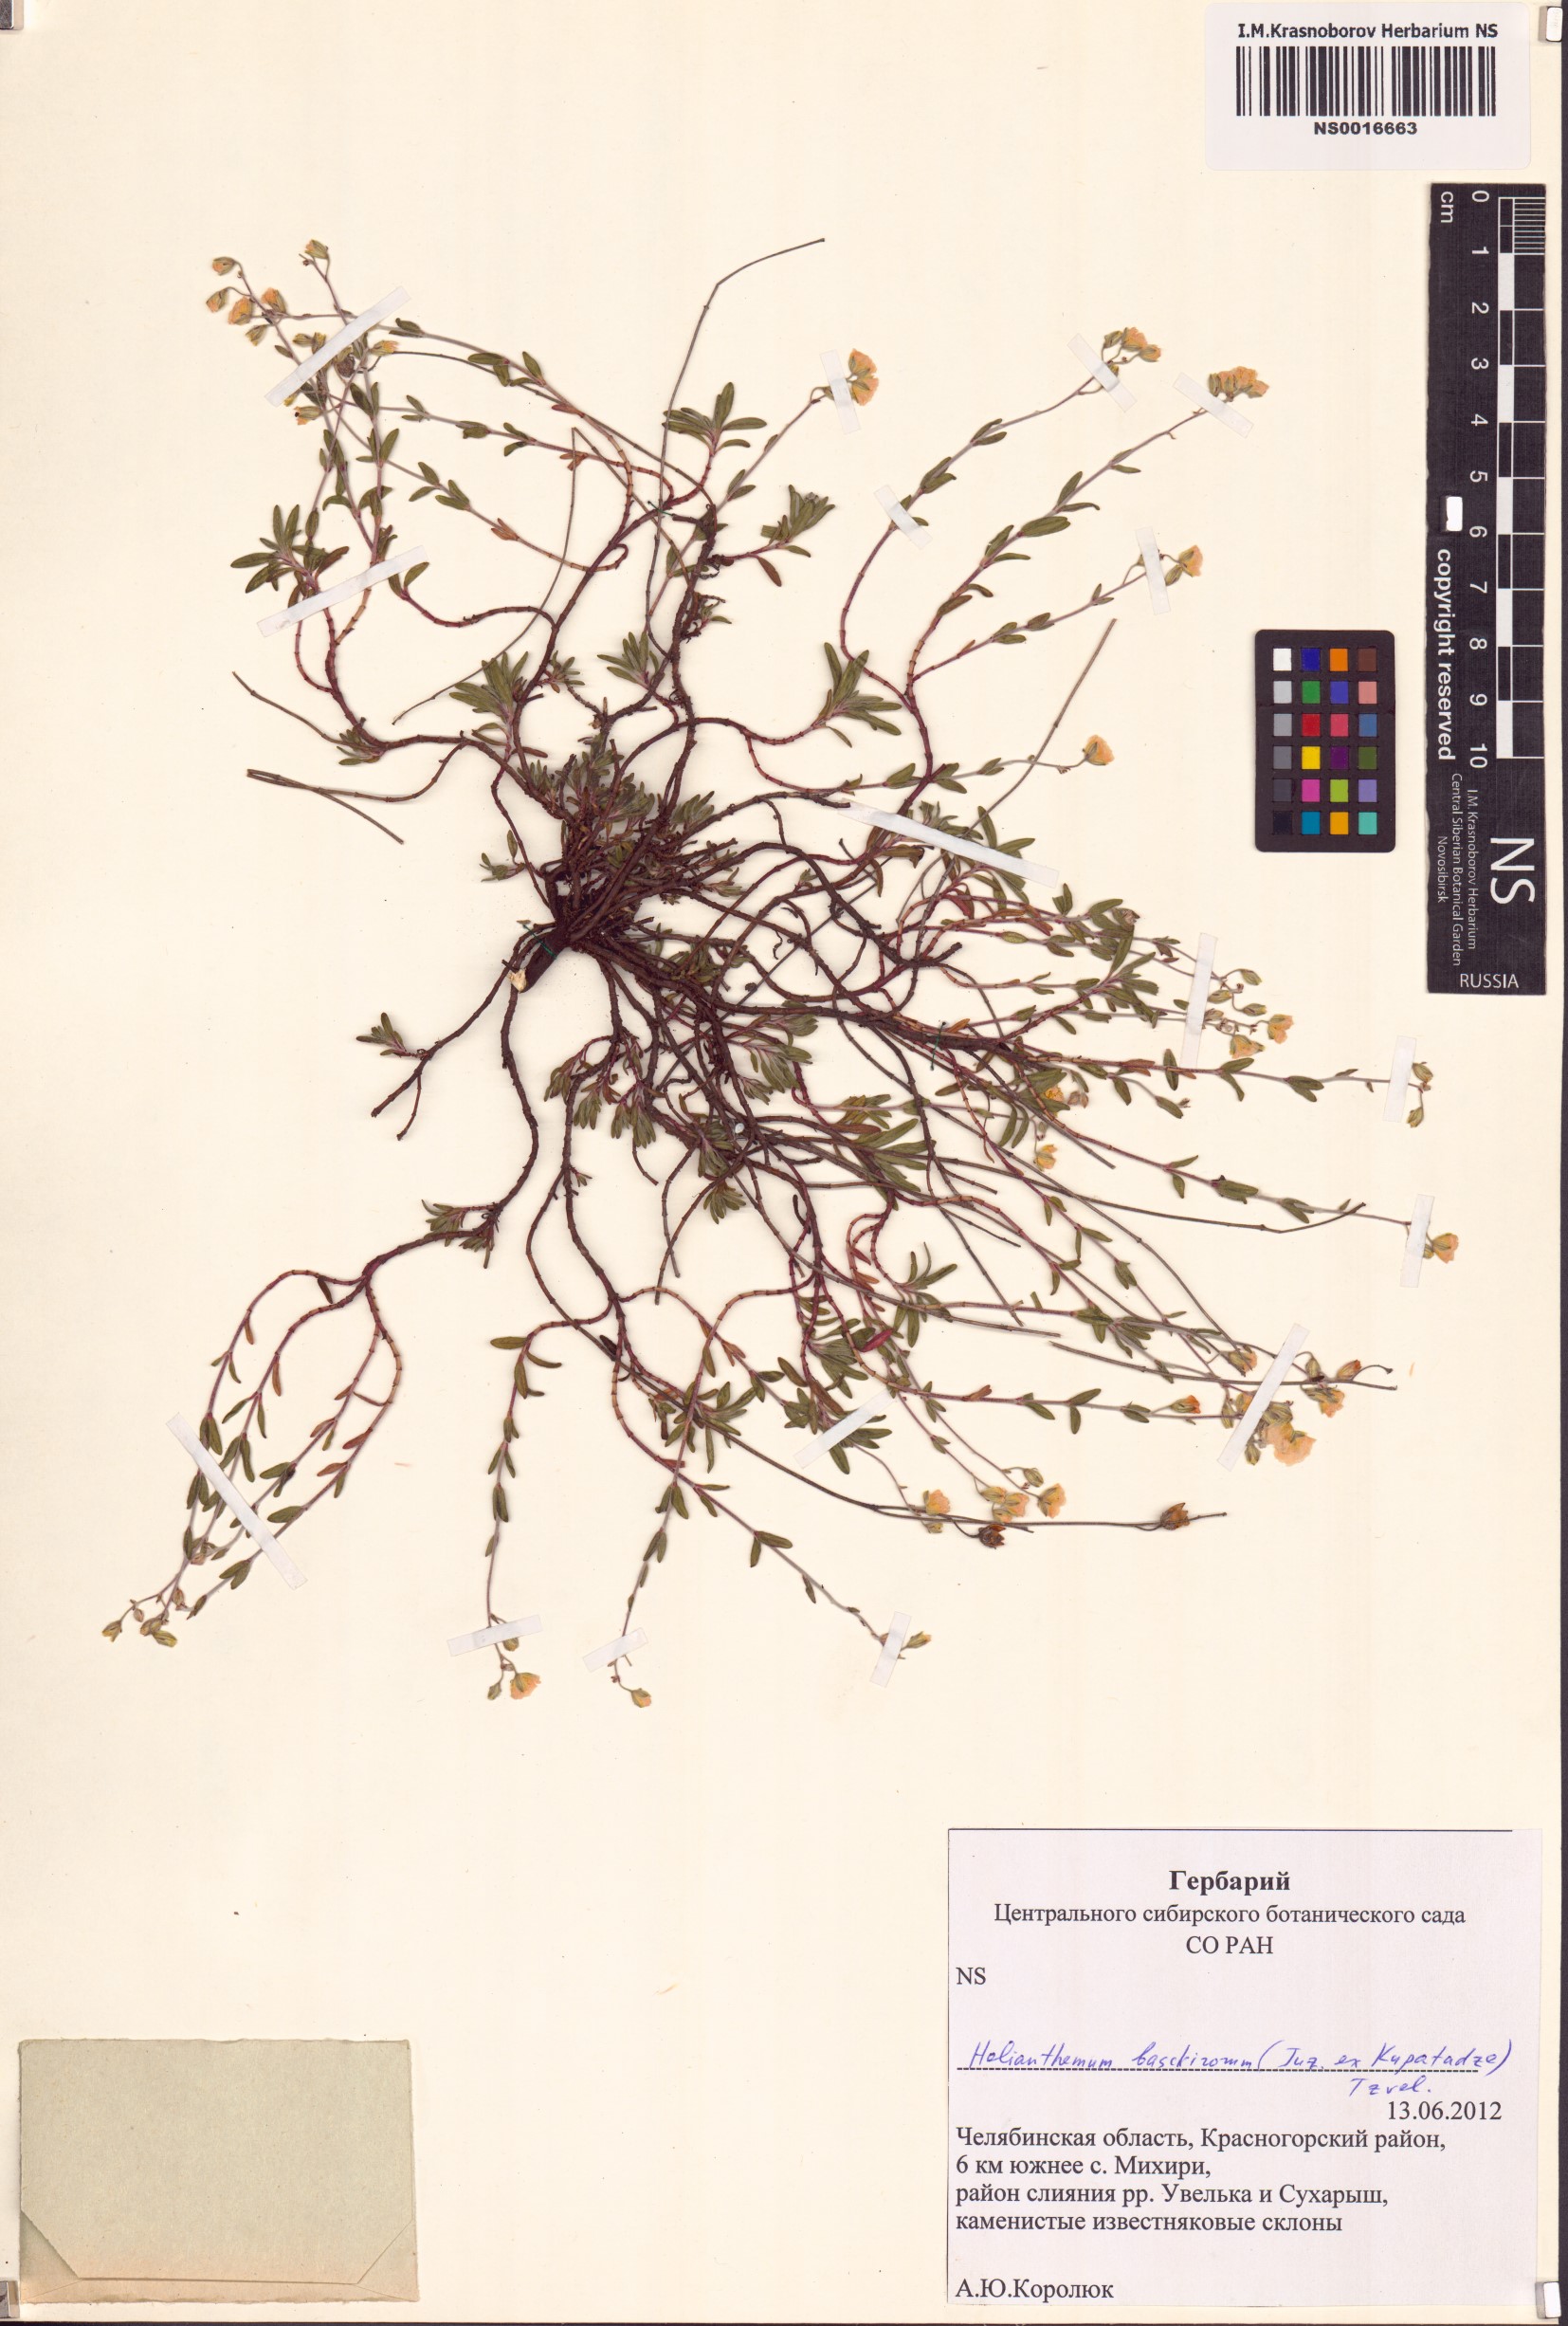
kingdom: Plantae
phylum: Tracheophyta
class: Magnoliopsida
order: Malvales
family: Cistaceae
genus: Helianthemum
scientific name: Helianthemum canum
